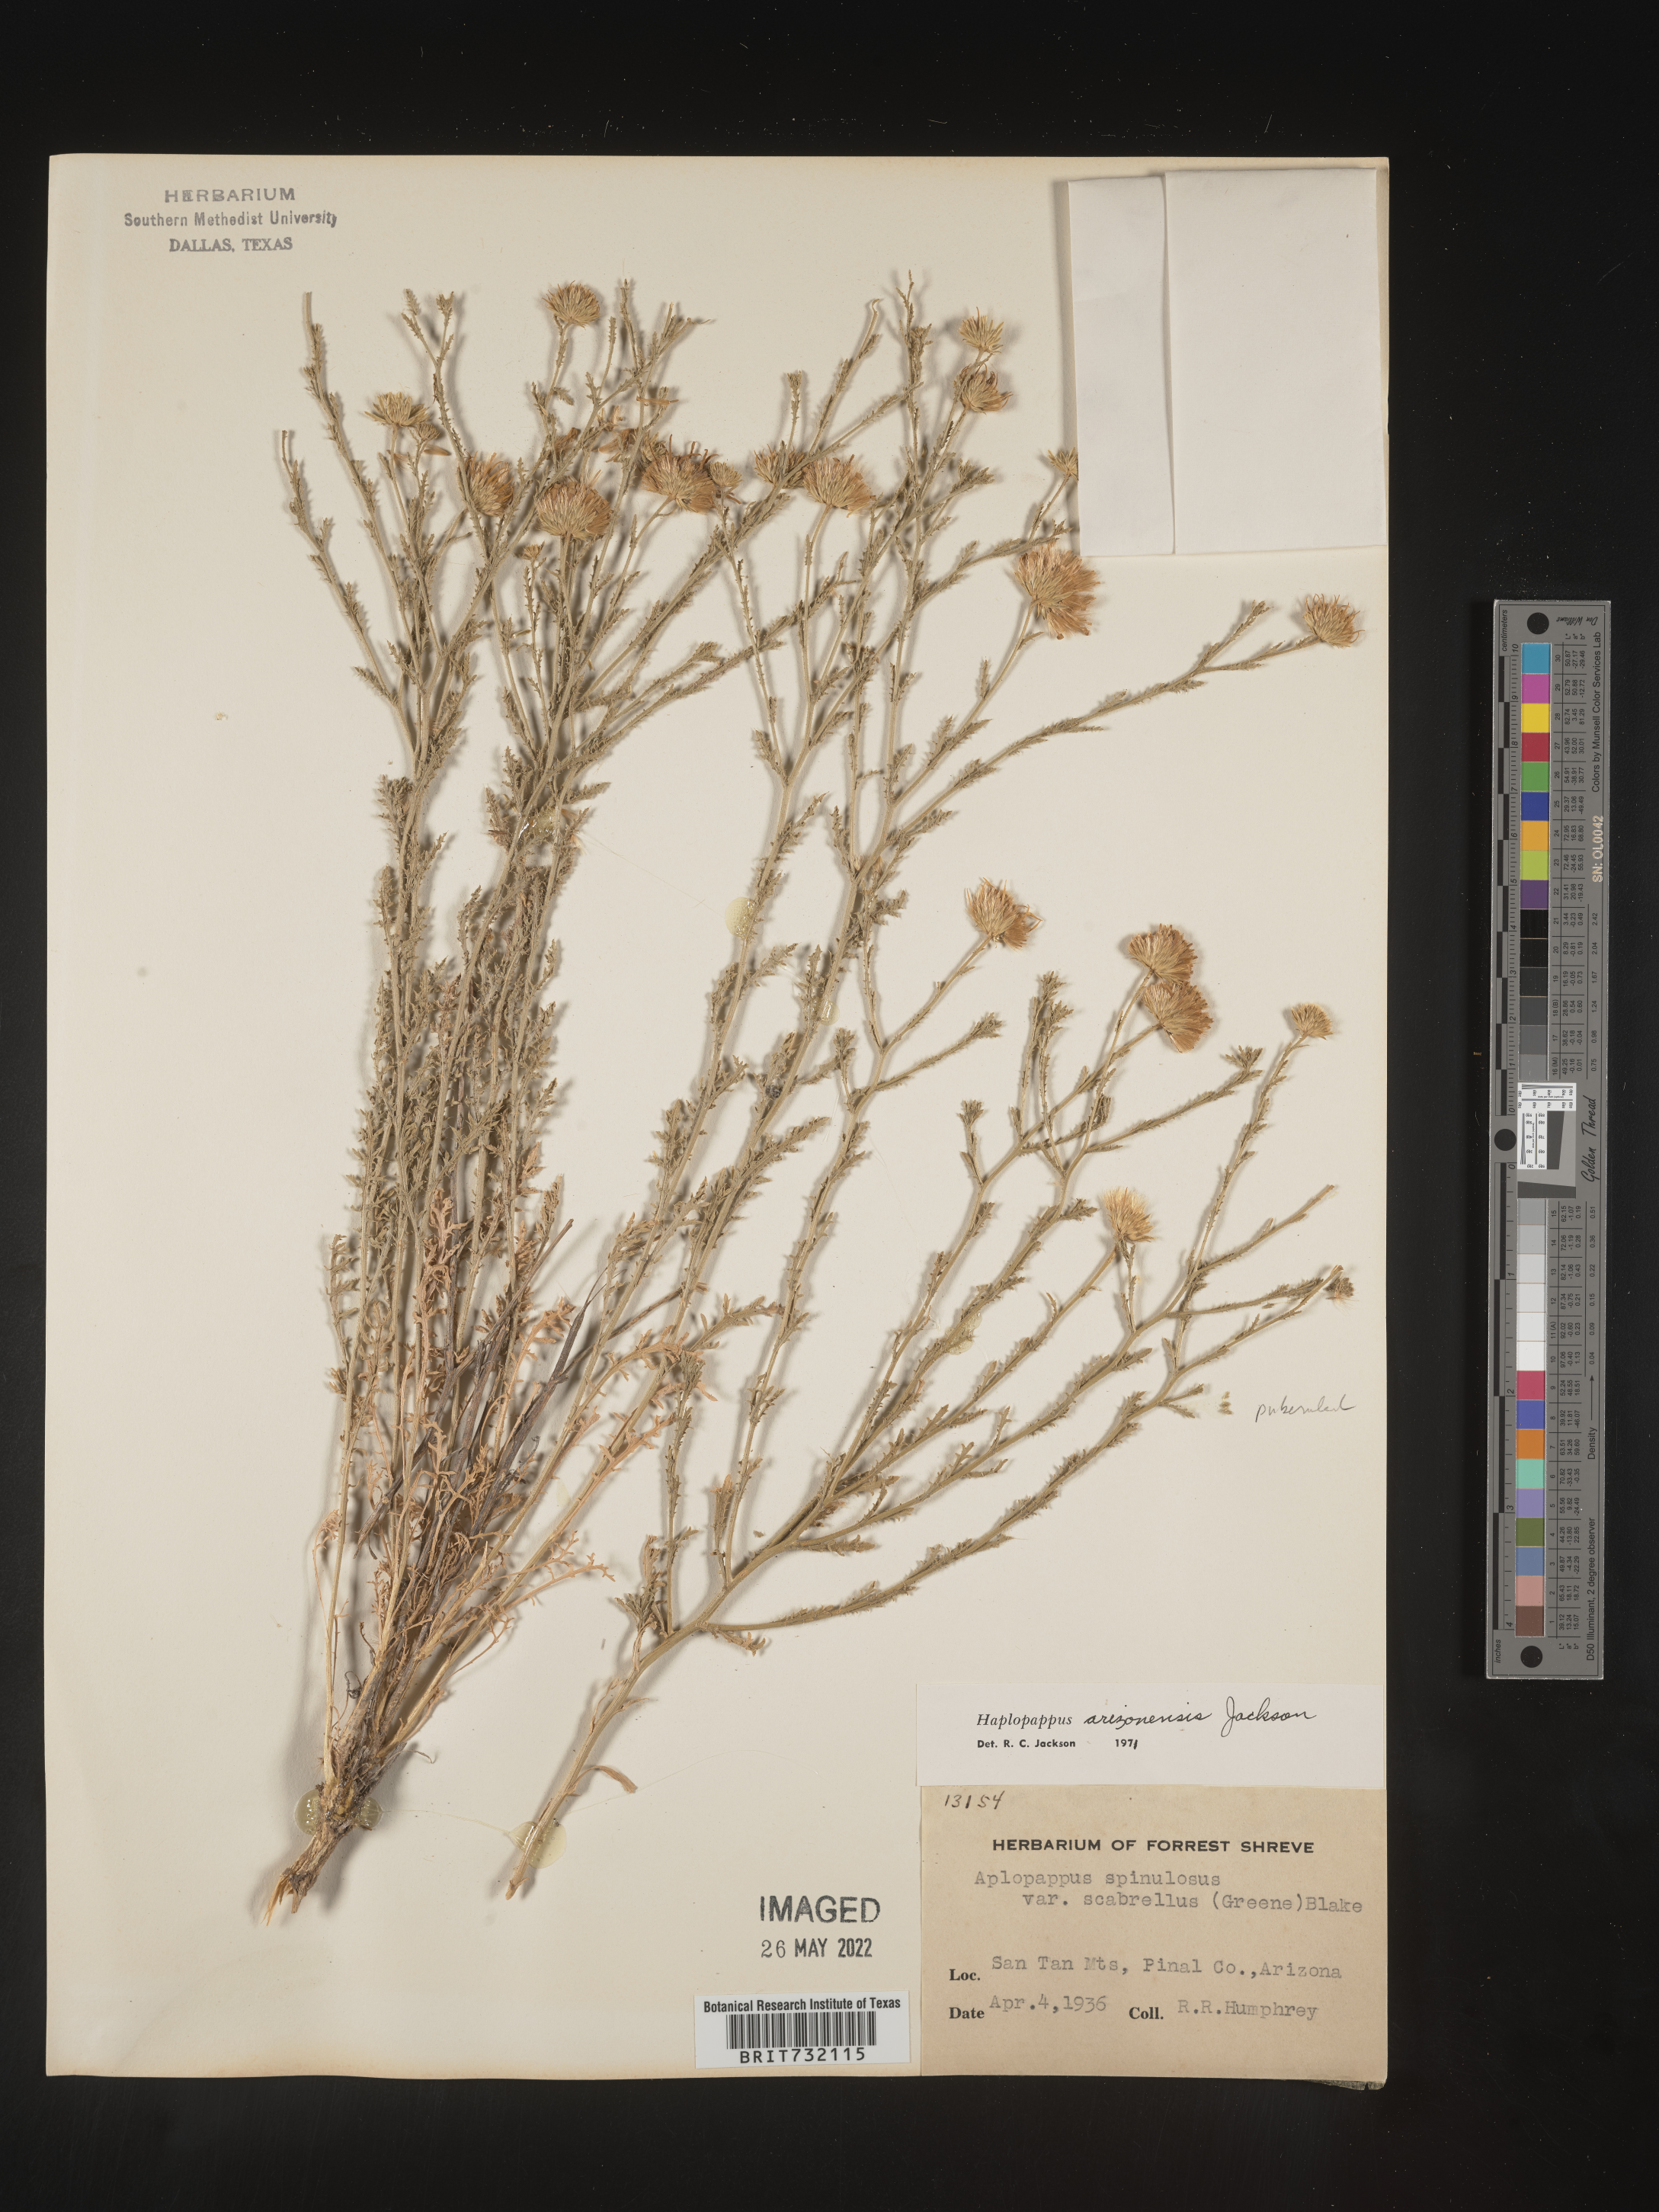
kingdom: Plantae
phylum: Tracheophyta
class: Magnoliopsida
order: Asterales
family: Asteraceae
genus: Haplopappus
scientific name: Haplopappus
